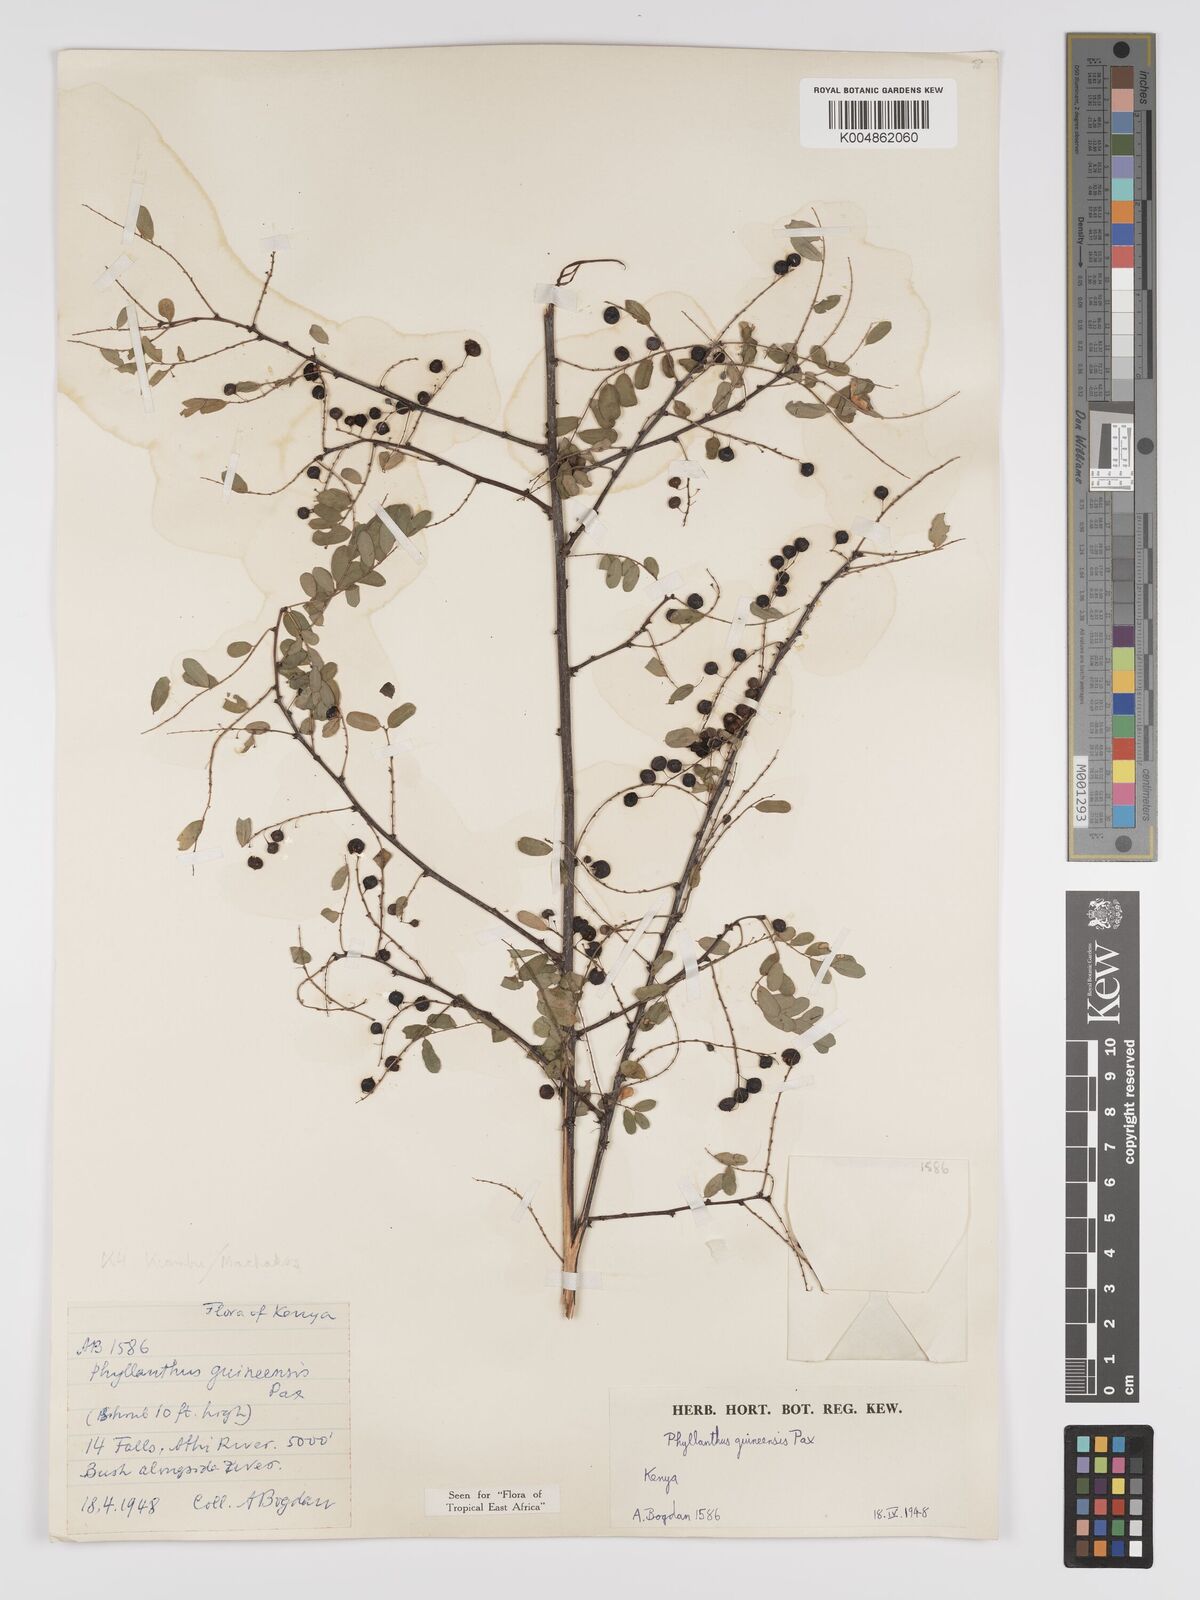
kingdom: Plantae
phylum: Tracheophyta
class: Magnoliopsida
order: Malpighiales
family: Phyllanthaceae
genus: Phyllanthus
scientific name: Phyllanthus ovalifolius
